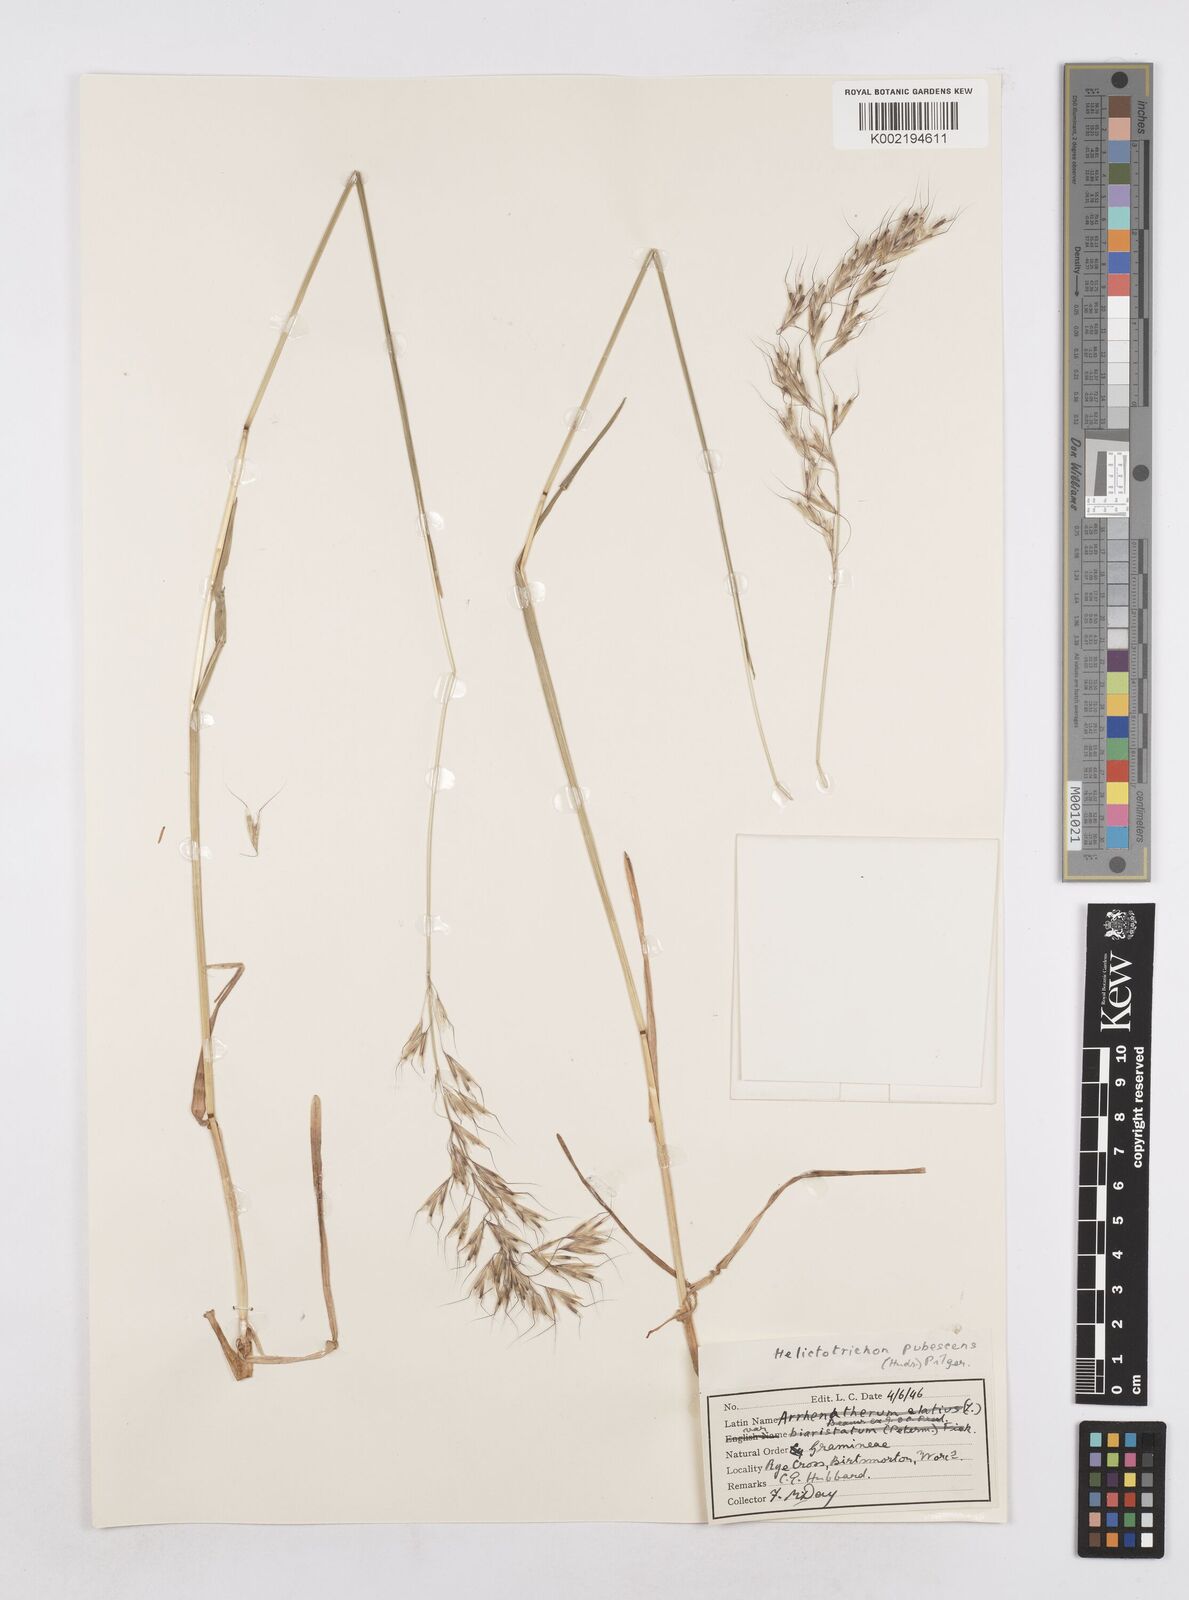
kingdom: Plantae
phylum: Tracheophyta
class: Liliopsida
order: Poales
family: Poaceae
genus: Avenula
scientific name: Avenula pubescens
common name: Downy alpine oatgrass
